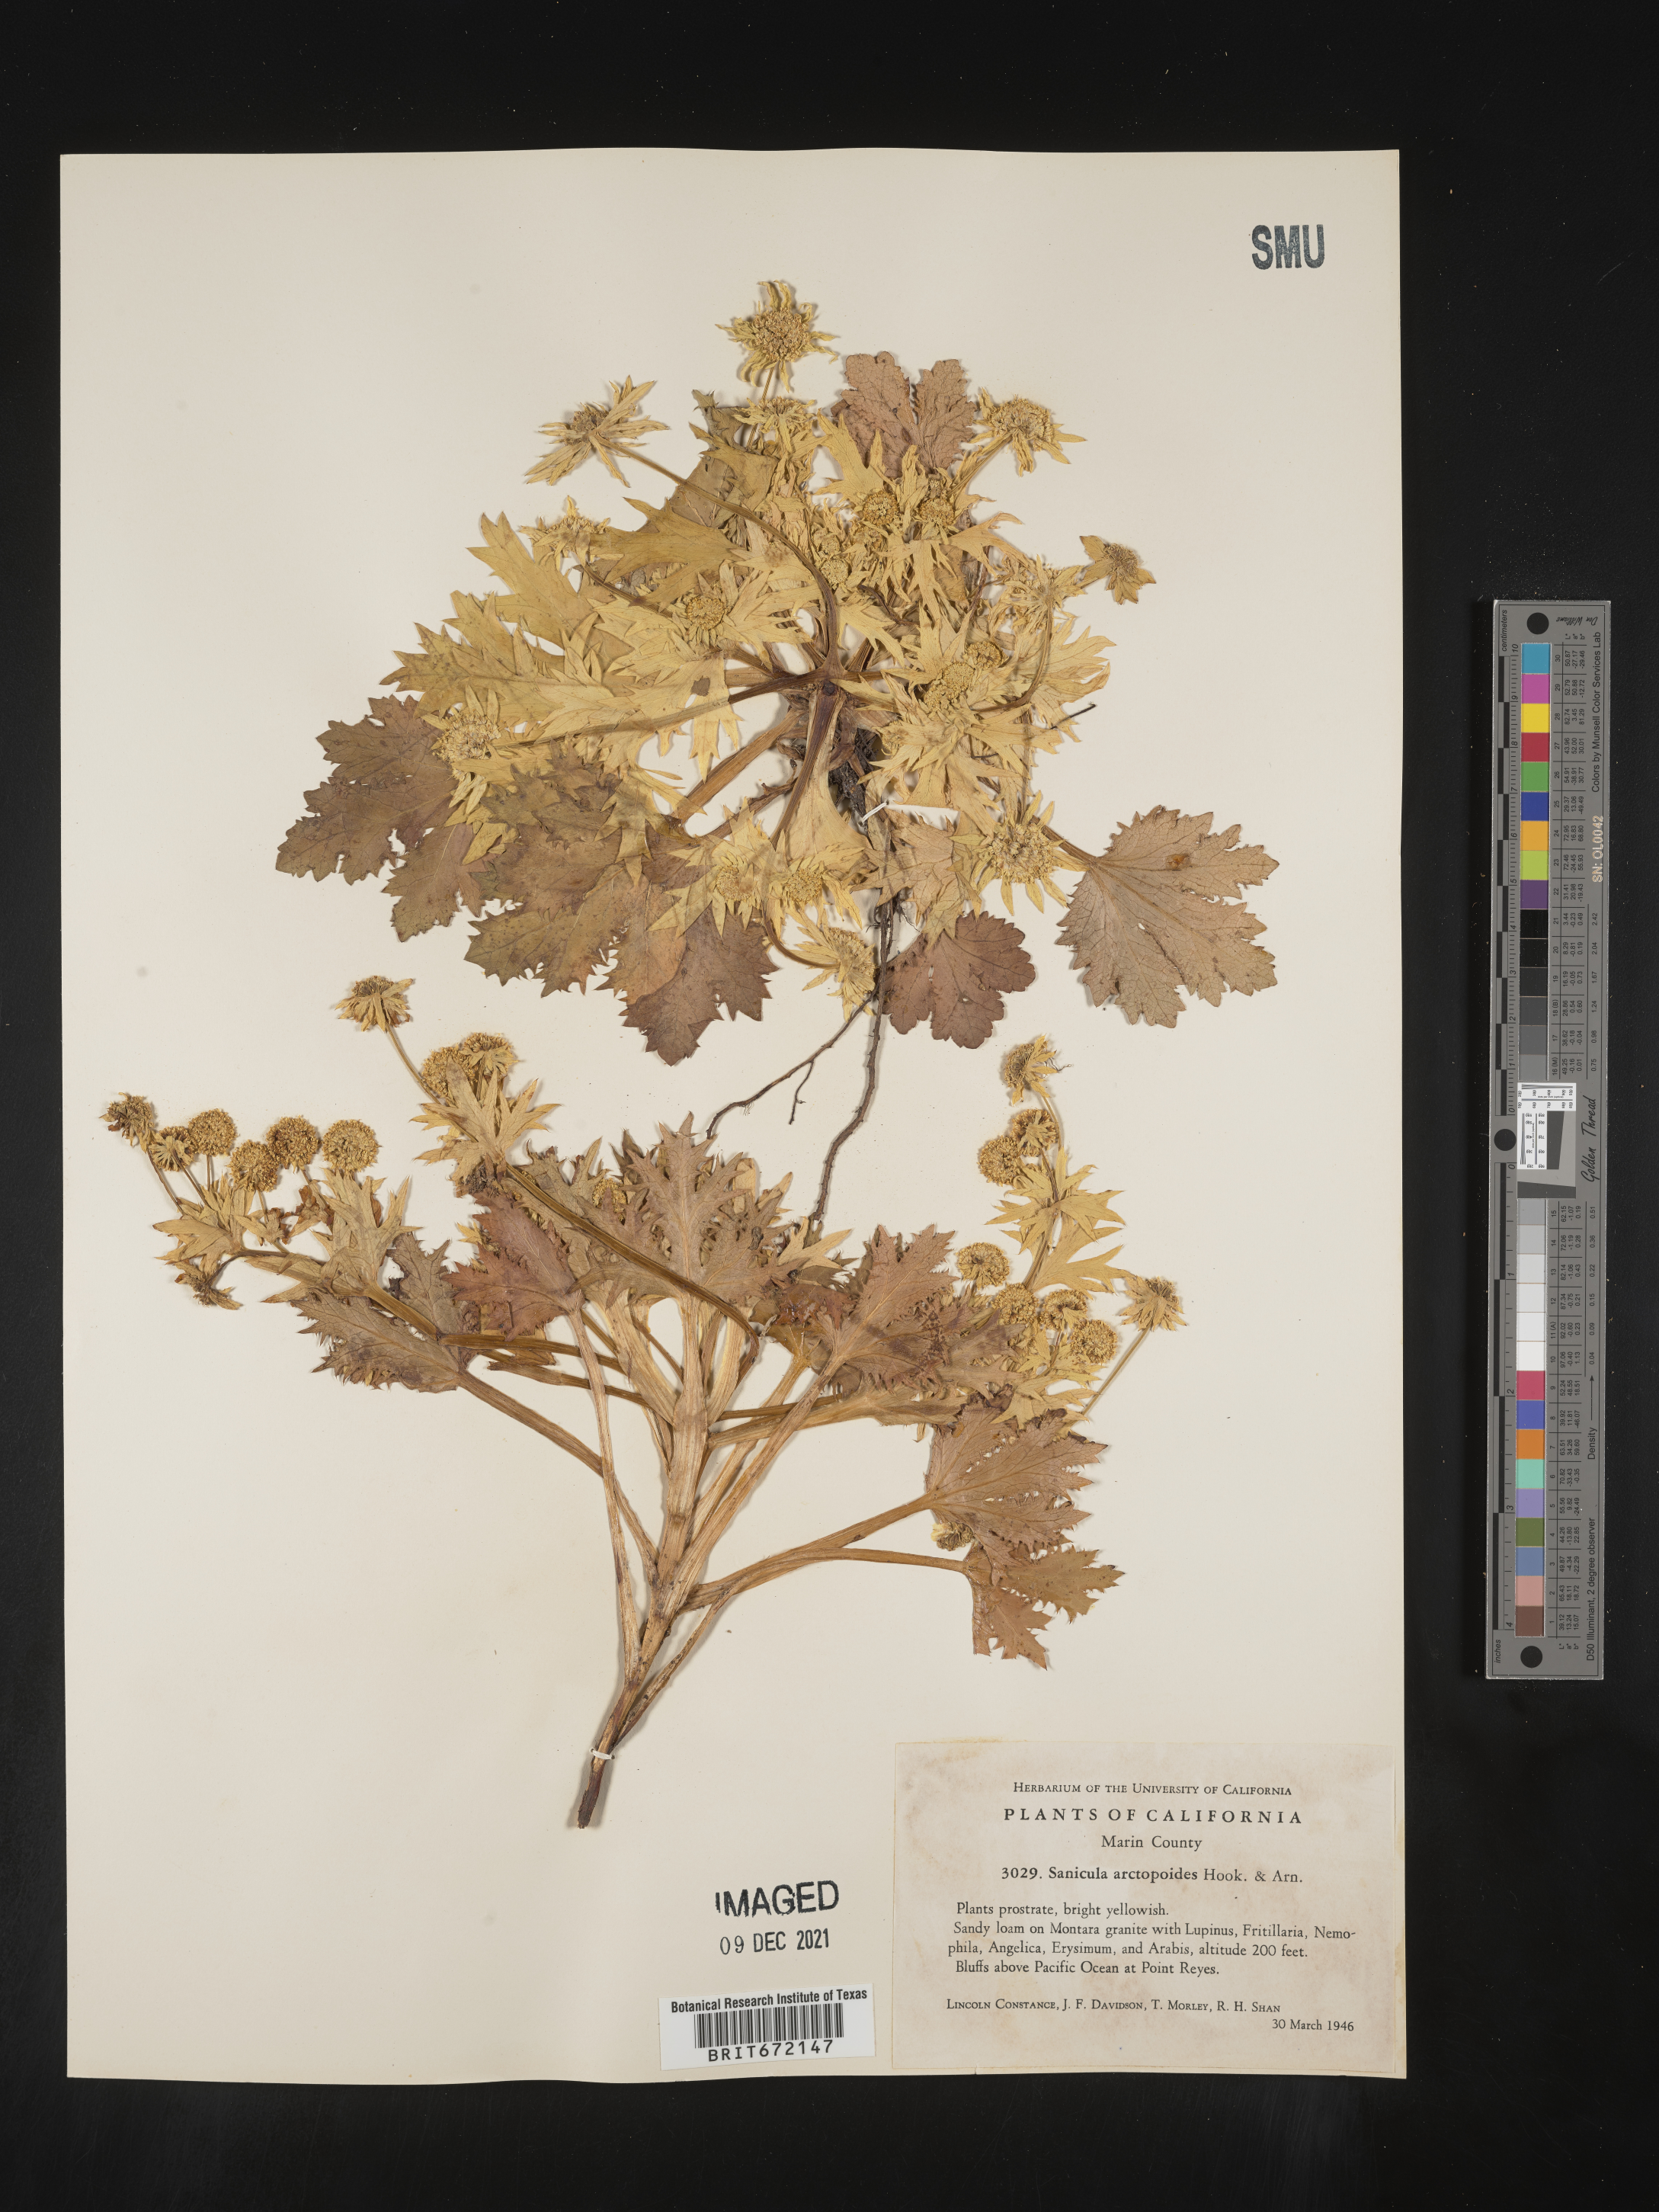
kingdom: Plantae
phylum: Tracheophyta
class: Magnoliopsida
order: Apiales
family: Apiaceae
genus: Sanicula
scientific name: Sanicula
